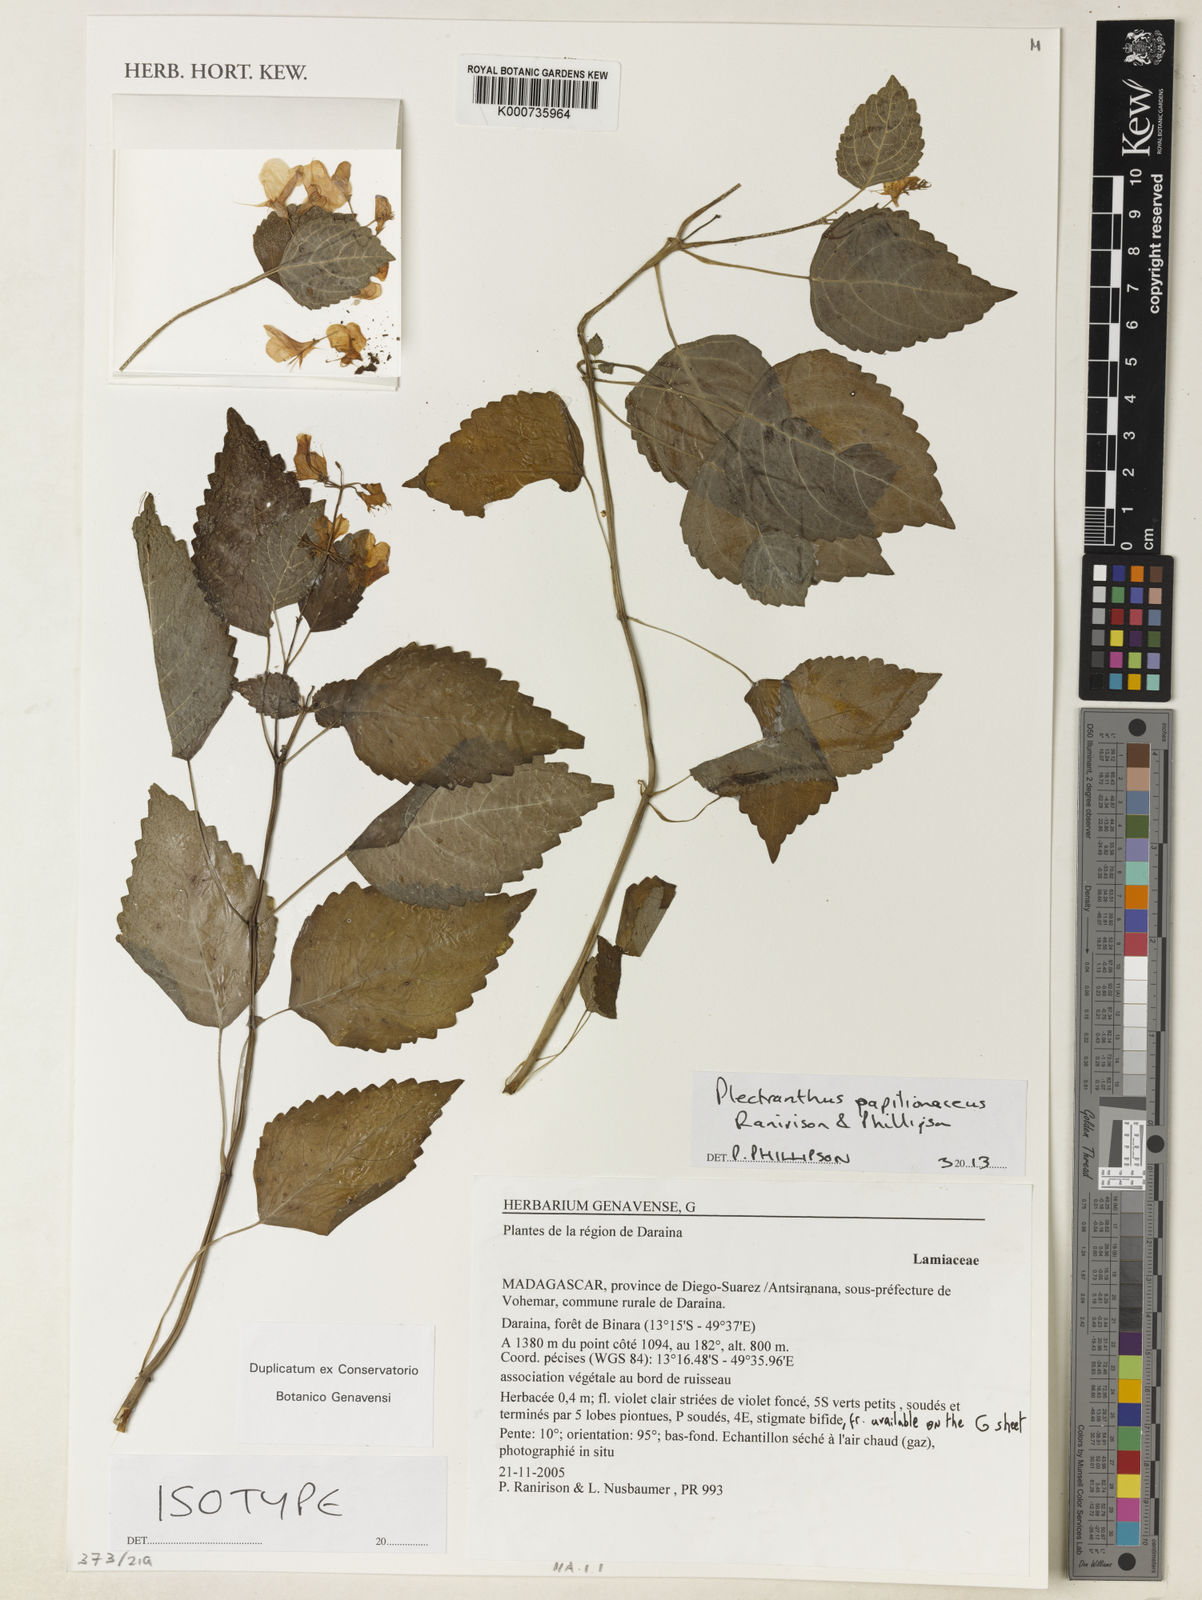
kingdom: Plantae
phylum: Tracheophyta
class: Magnoliopsida
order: Lamiales
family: Lamiaceae
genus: Plectranthus
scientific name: Plectranthus papilionaceus
